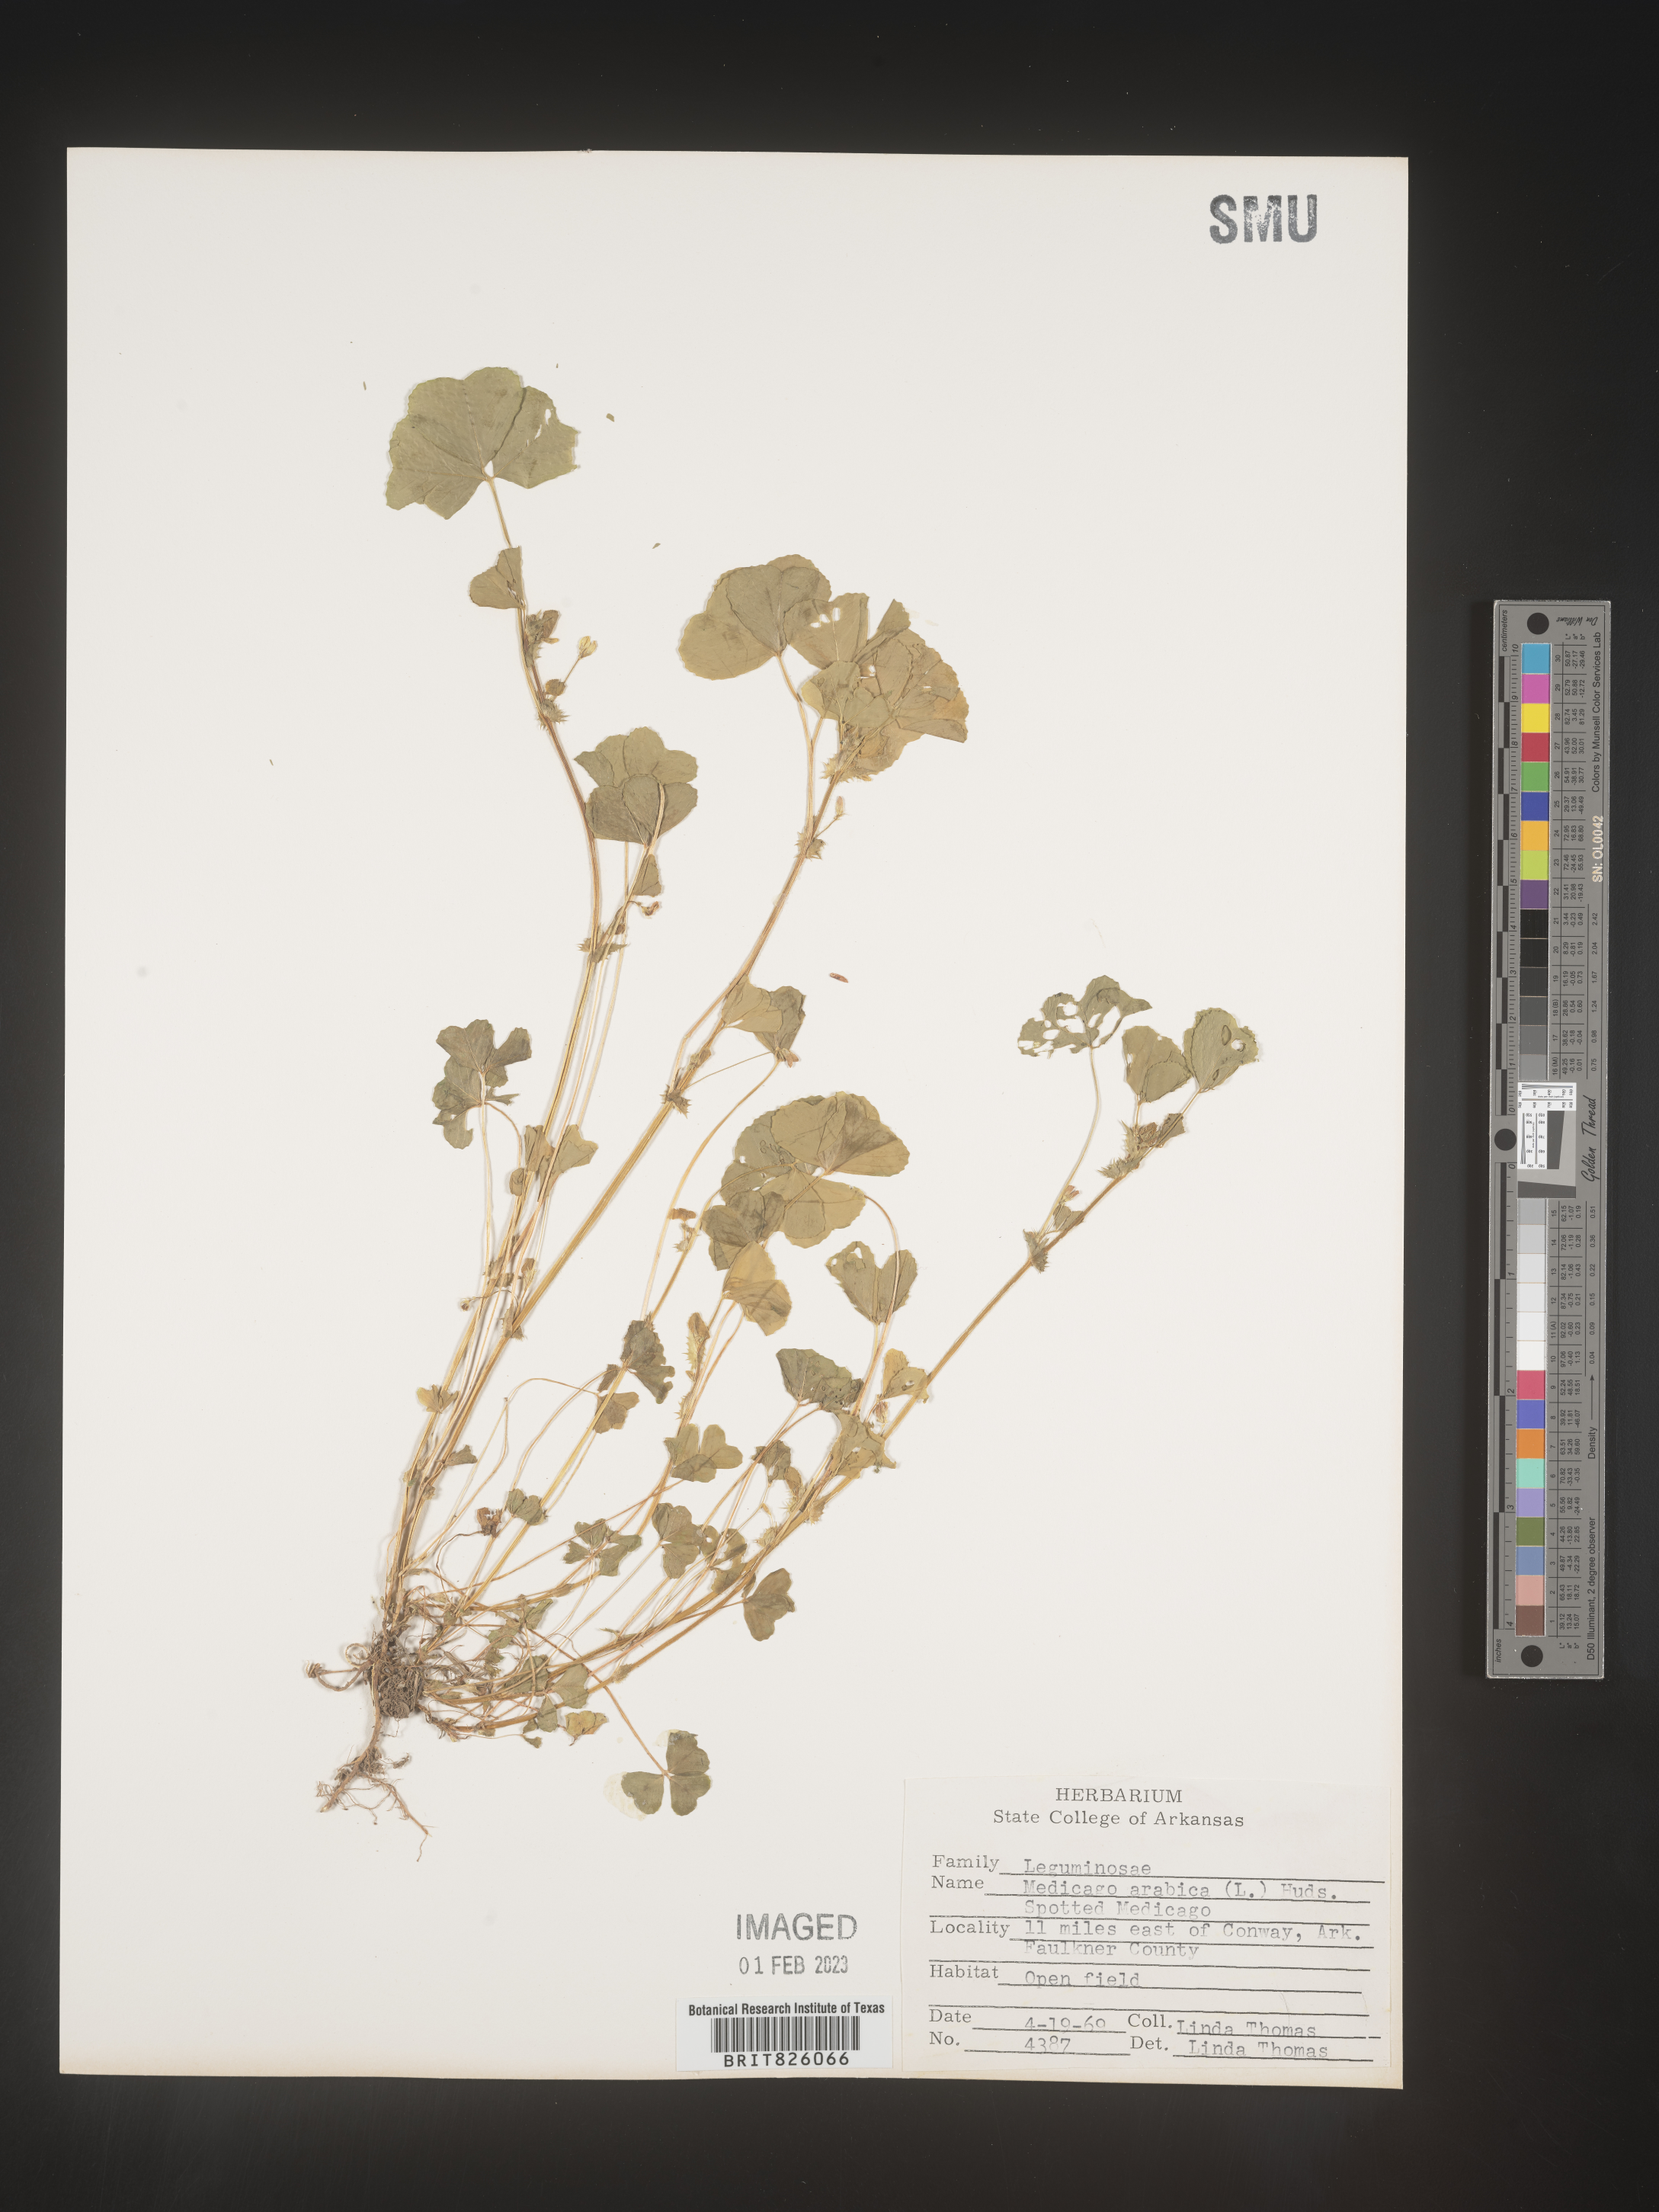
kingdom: Plantae
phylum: Tracheophyta
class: Magnoliopsida
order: Fabales
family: Fabaceae
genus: Medicago
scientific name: Medicago arabica
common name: Spotted medick
